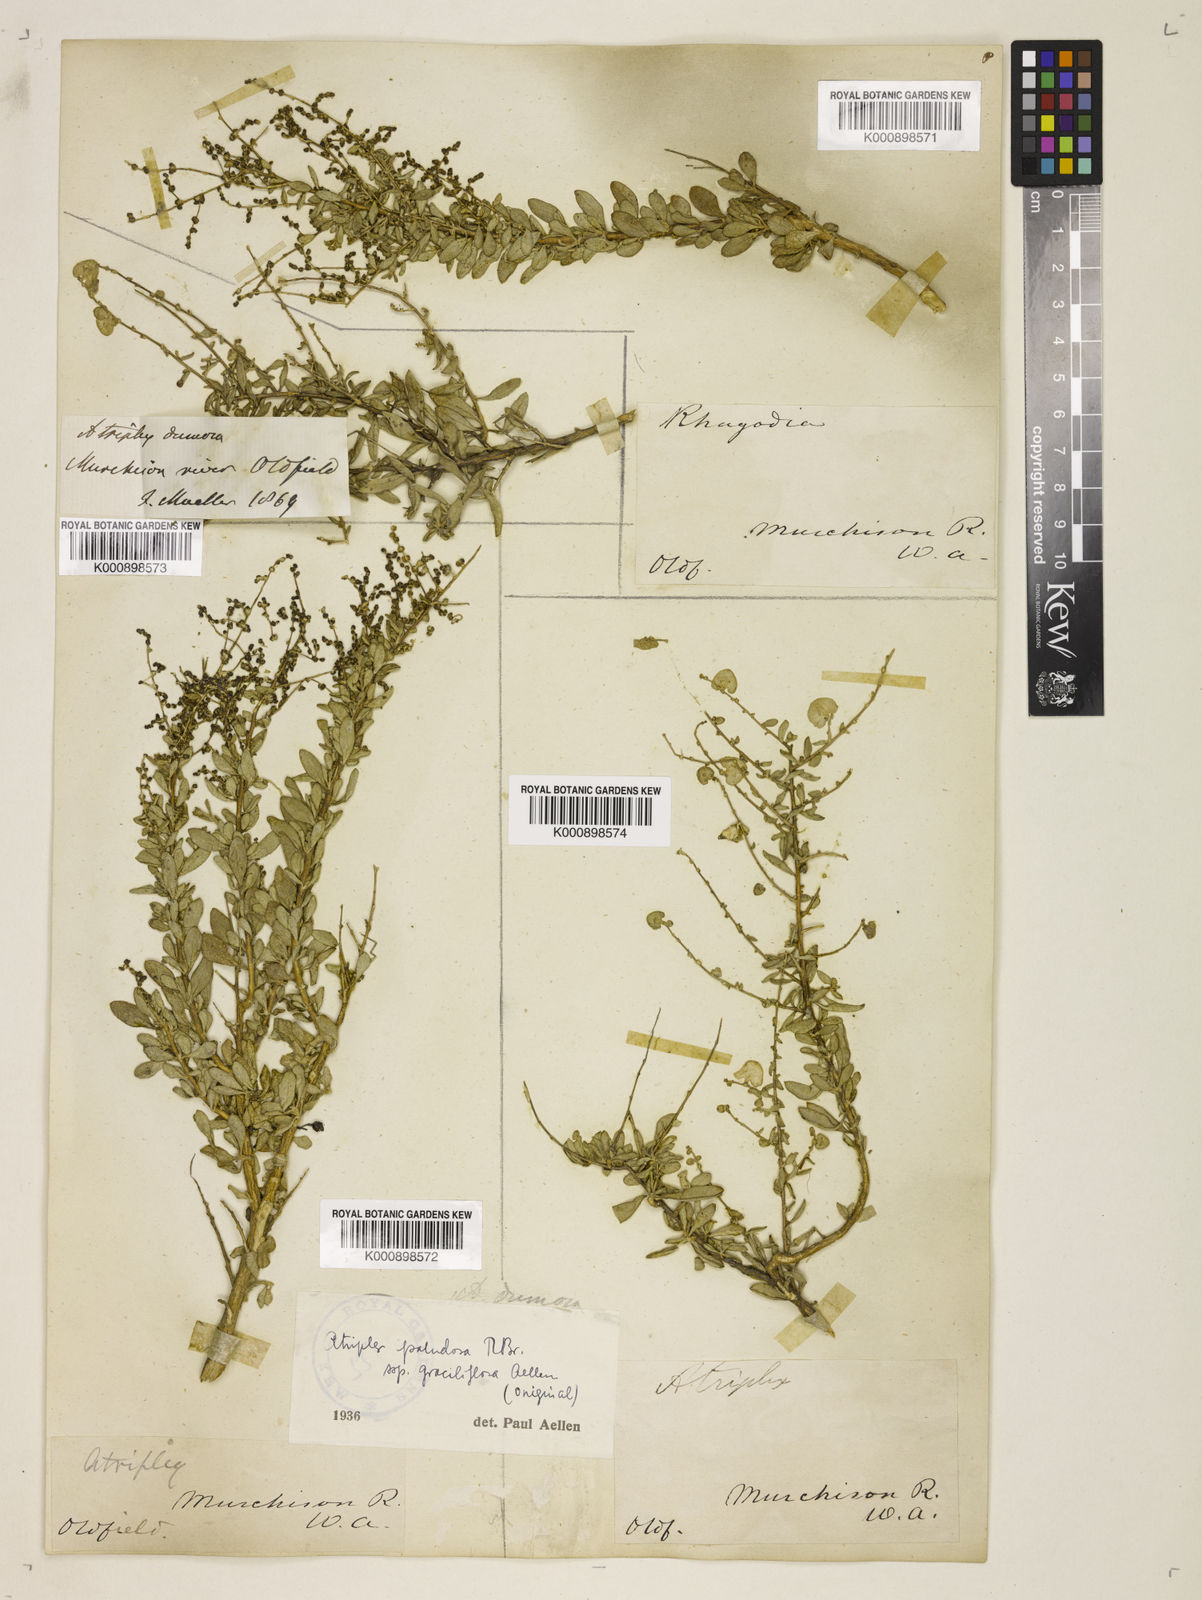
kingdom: Plantae
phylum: Tracheophyta
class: Magnoliopsida
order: Caryophyllales
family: Amaranthaceae
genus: Atriplex
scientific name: Atriplex bunburyana
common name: Silver saltbush
